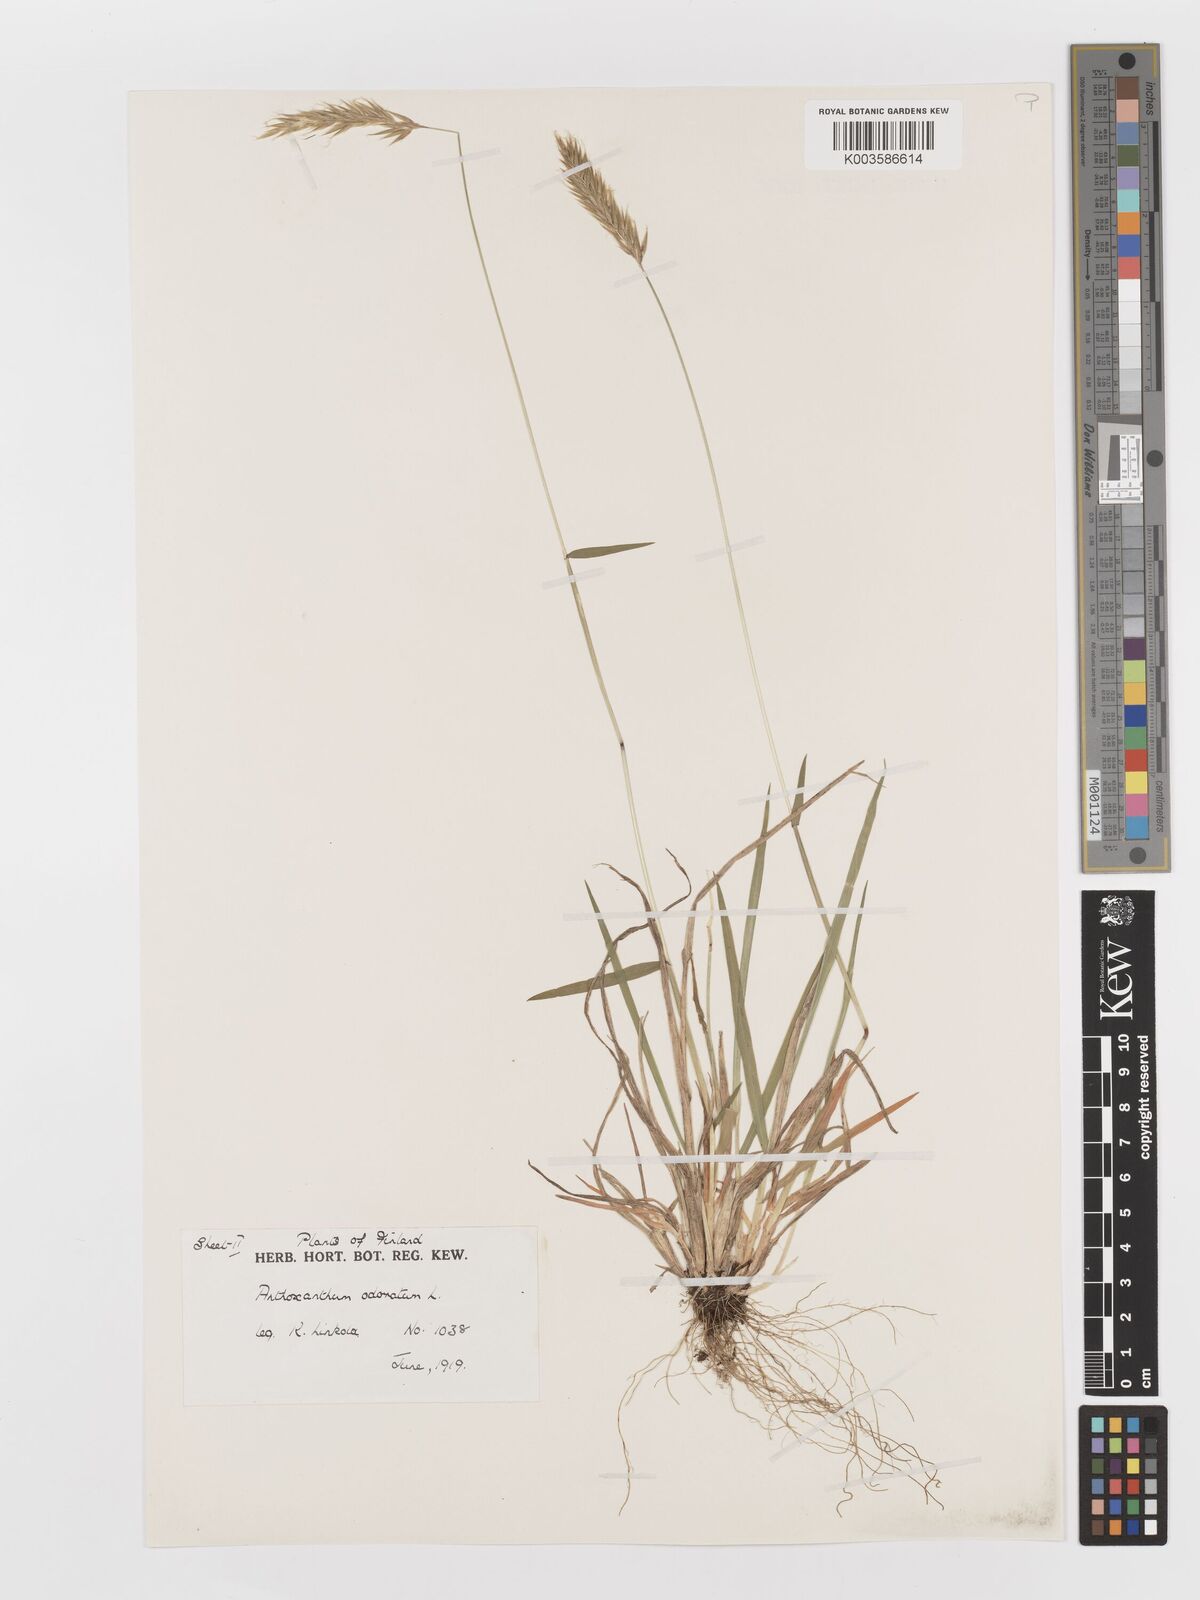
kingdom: Plantae
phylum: Tracheophyta
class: Liliopsida
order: Poales
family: Poaceae
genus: Anthoxanthum
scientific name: Anthoxanthum odoratum
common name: Sweet vernalgrass
